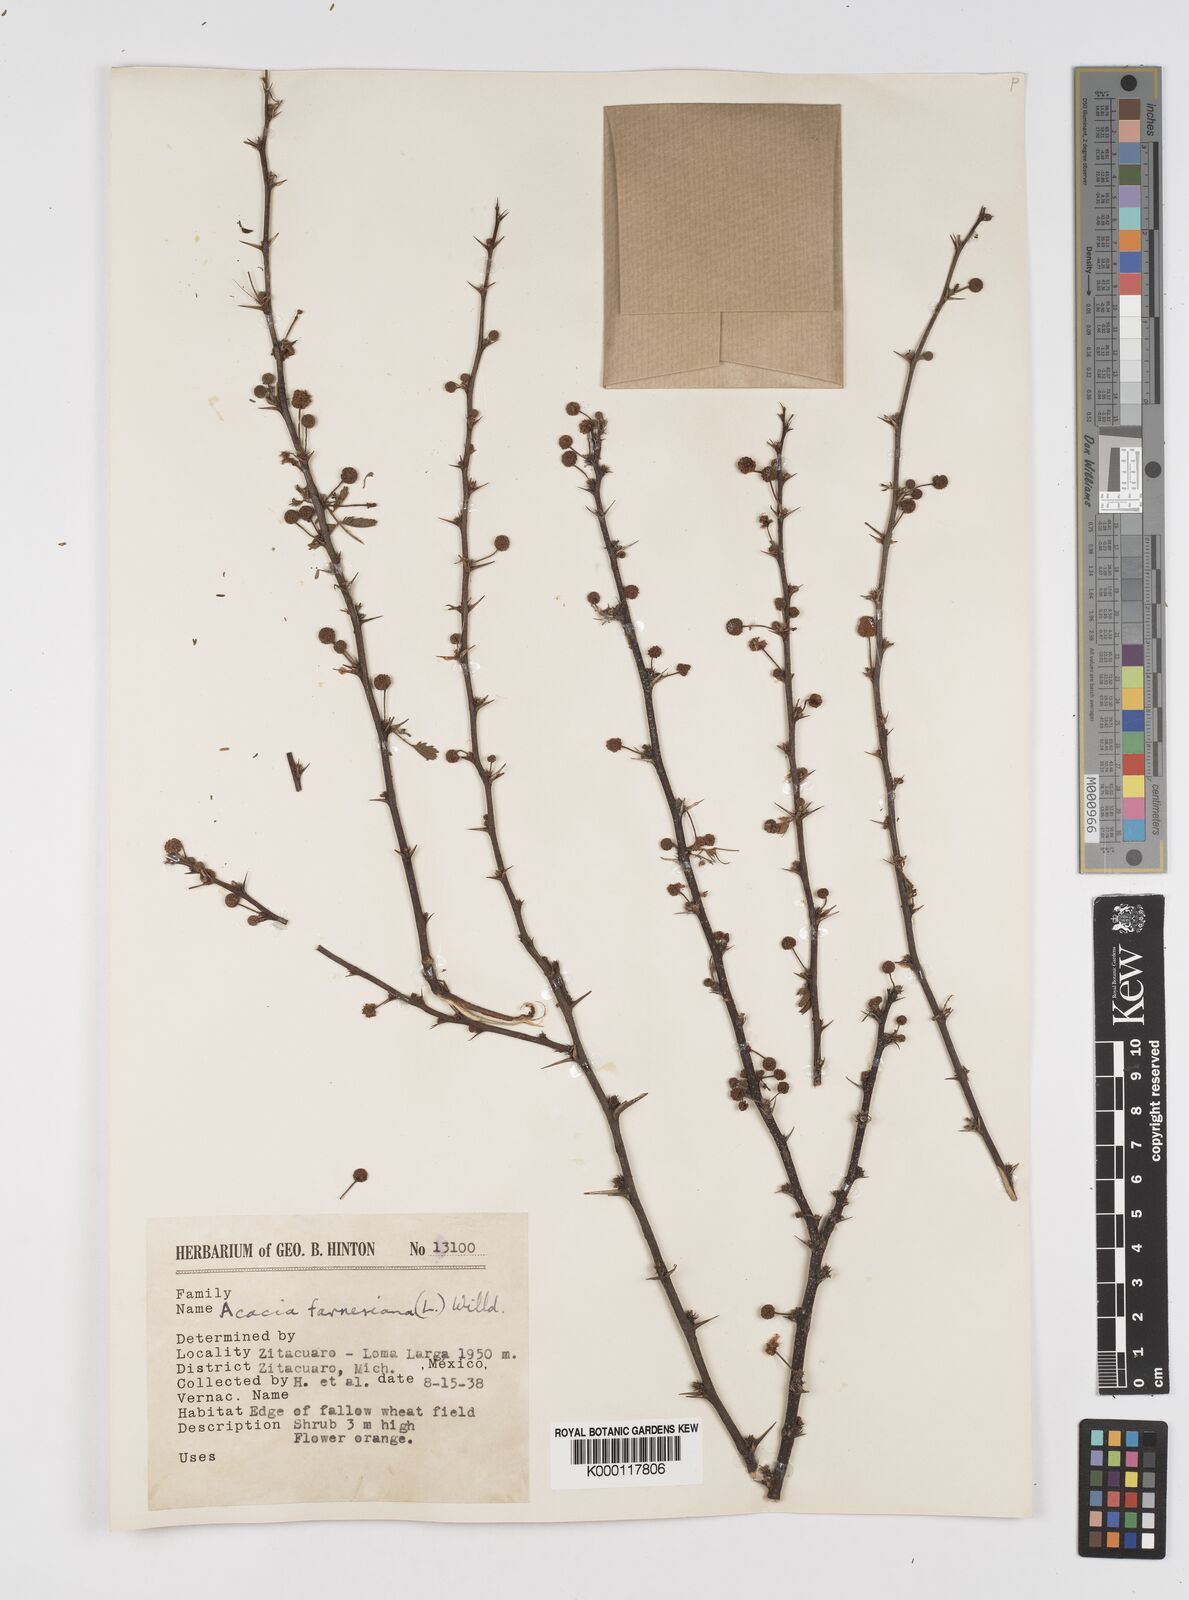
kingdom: Plantae
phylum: Tracheophyta
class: Magnoliopsida
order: Fabales
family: Fabaceae
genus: Vachellia
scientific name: Vachellia farnesiana
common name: Sweet acacia
